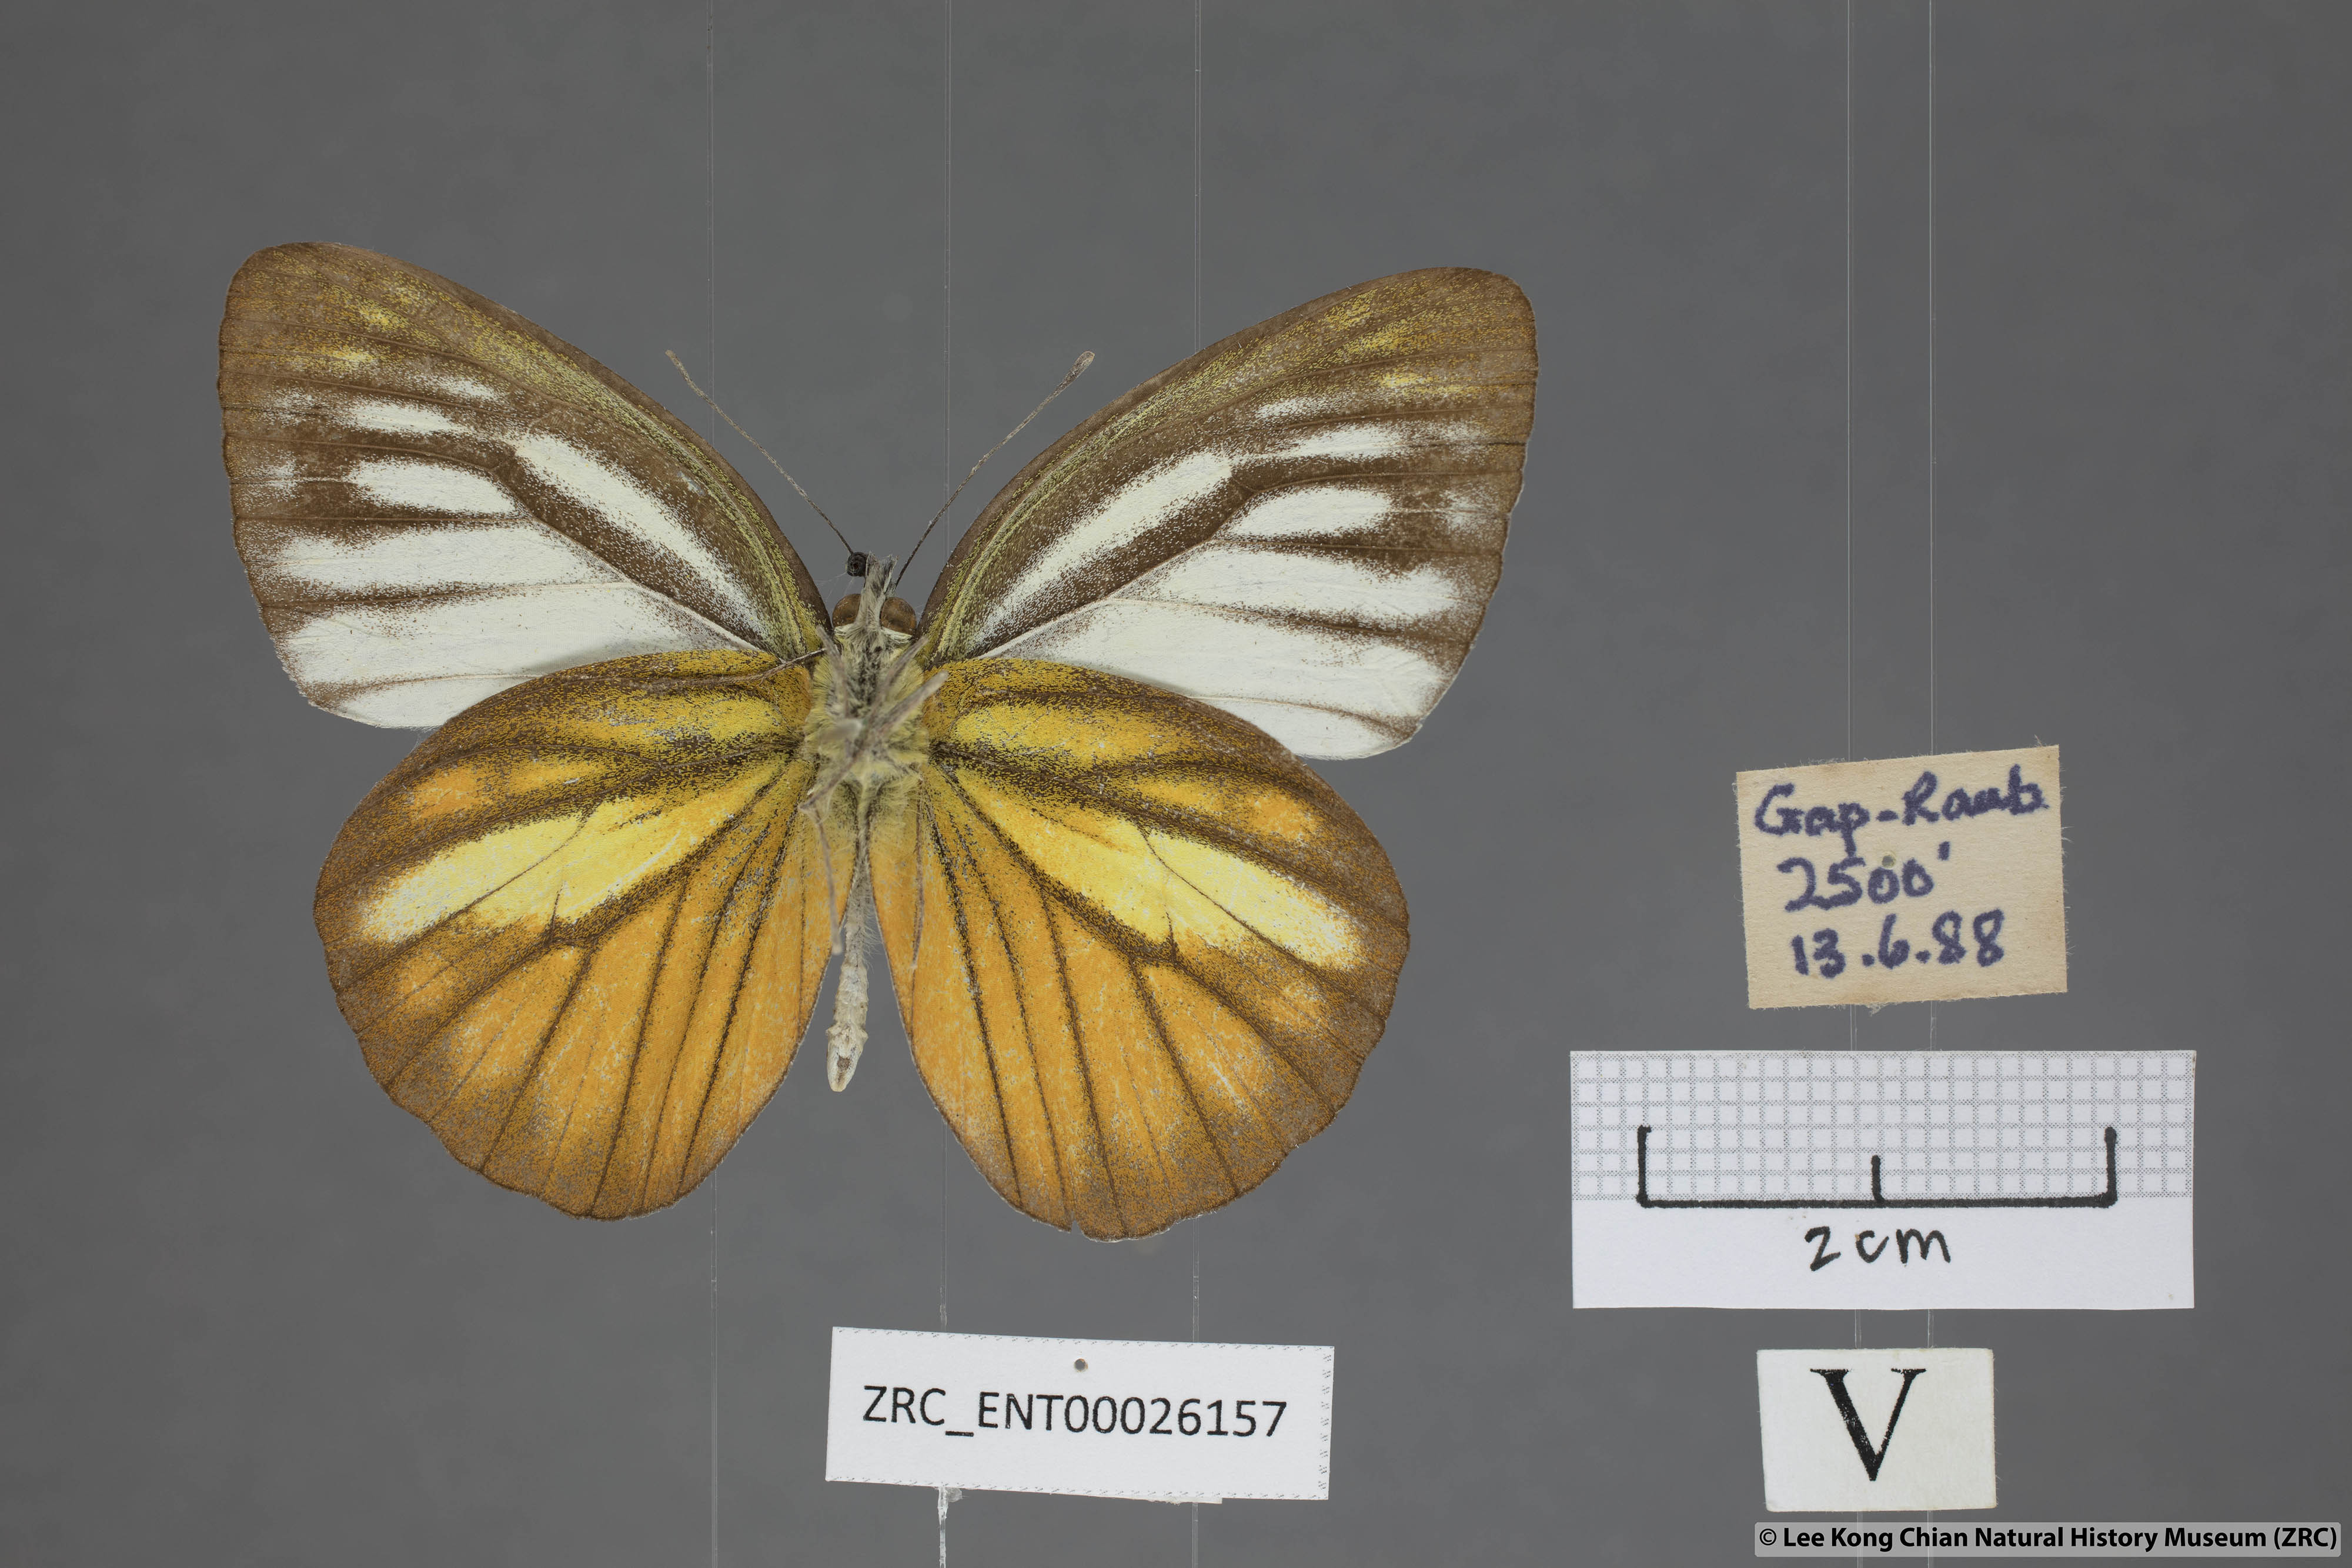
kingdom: Animalia
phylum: Arthropoda
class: Insecta
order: Lepidoptera
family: Pieridae
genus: Cepora
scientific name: Cepora nadina
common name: Lesser gull
